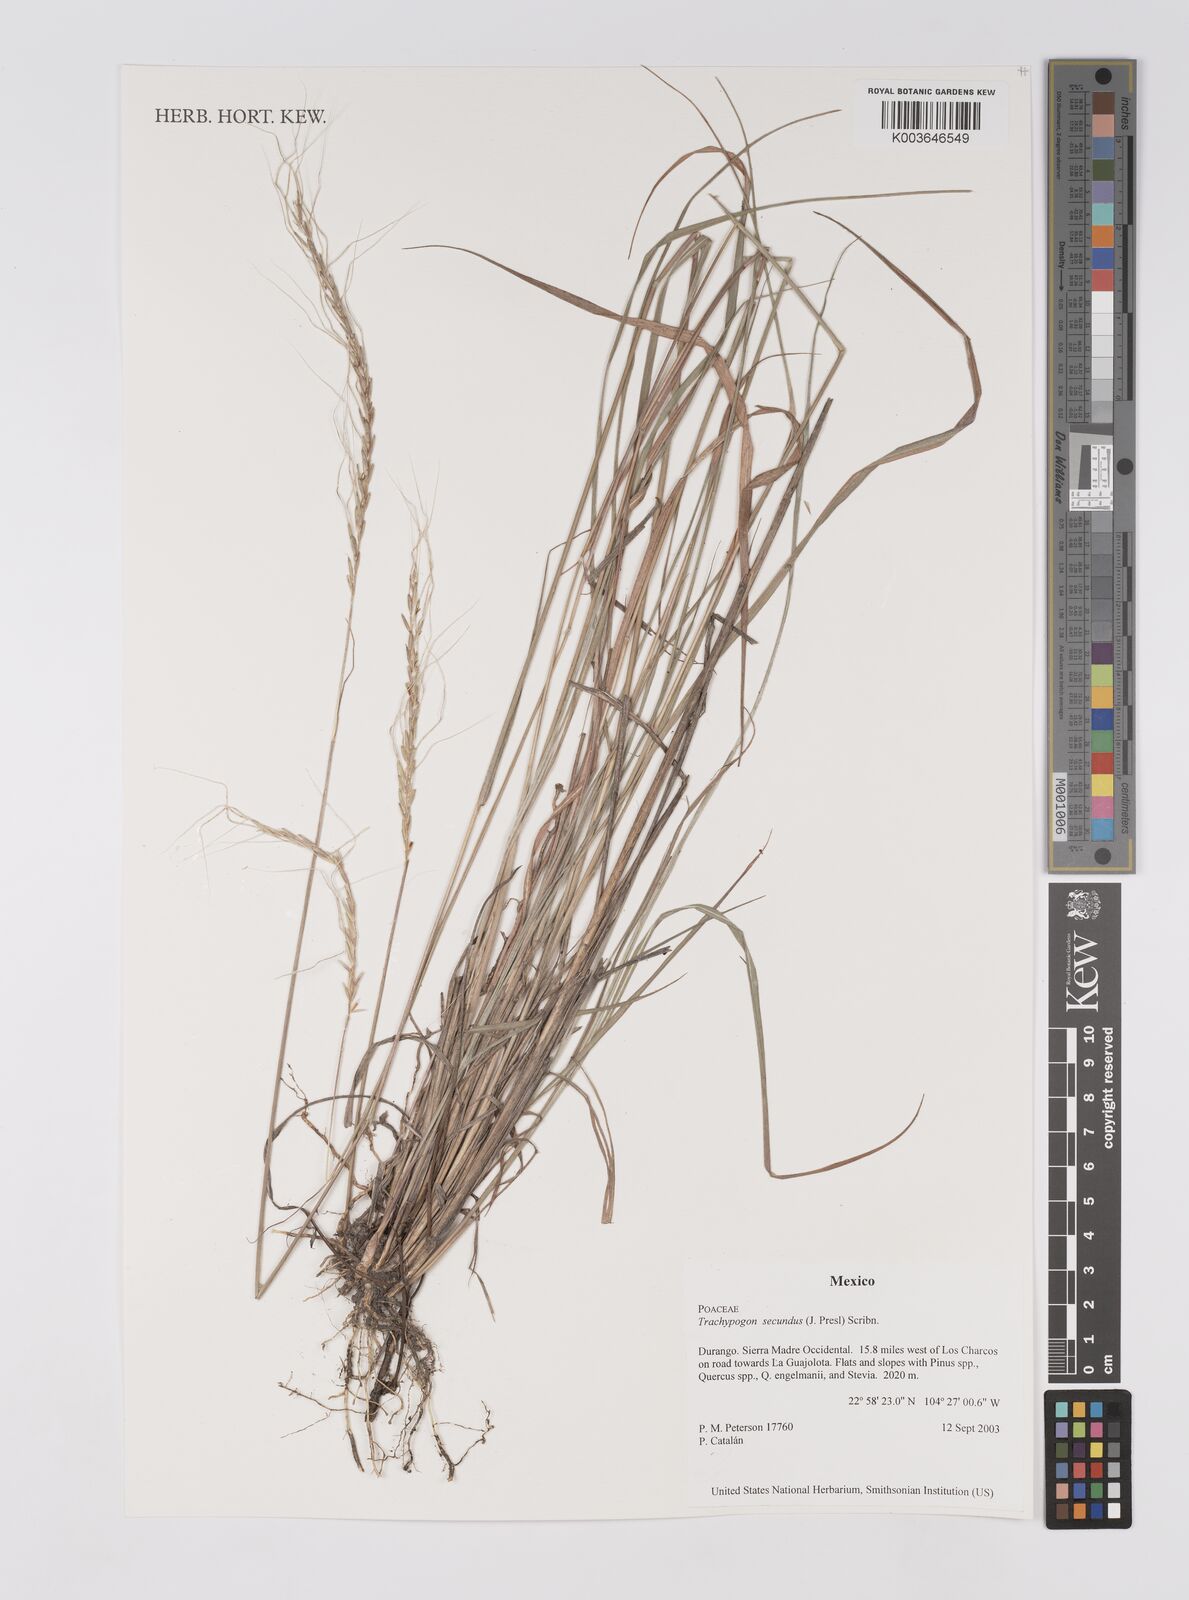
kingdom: Plantae
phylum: Tracheophyta
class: Liliopsida
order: Poales
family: Poaceae
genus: Trachypogon
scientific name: Trachypogon spicatus
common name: Crinkle-awn
